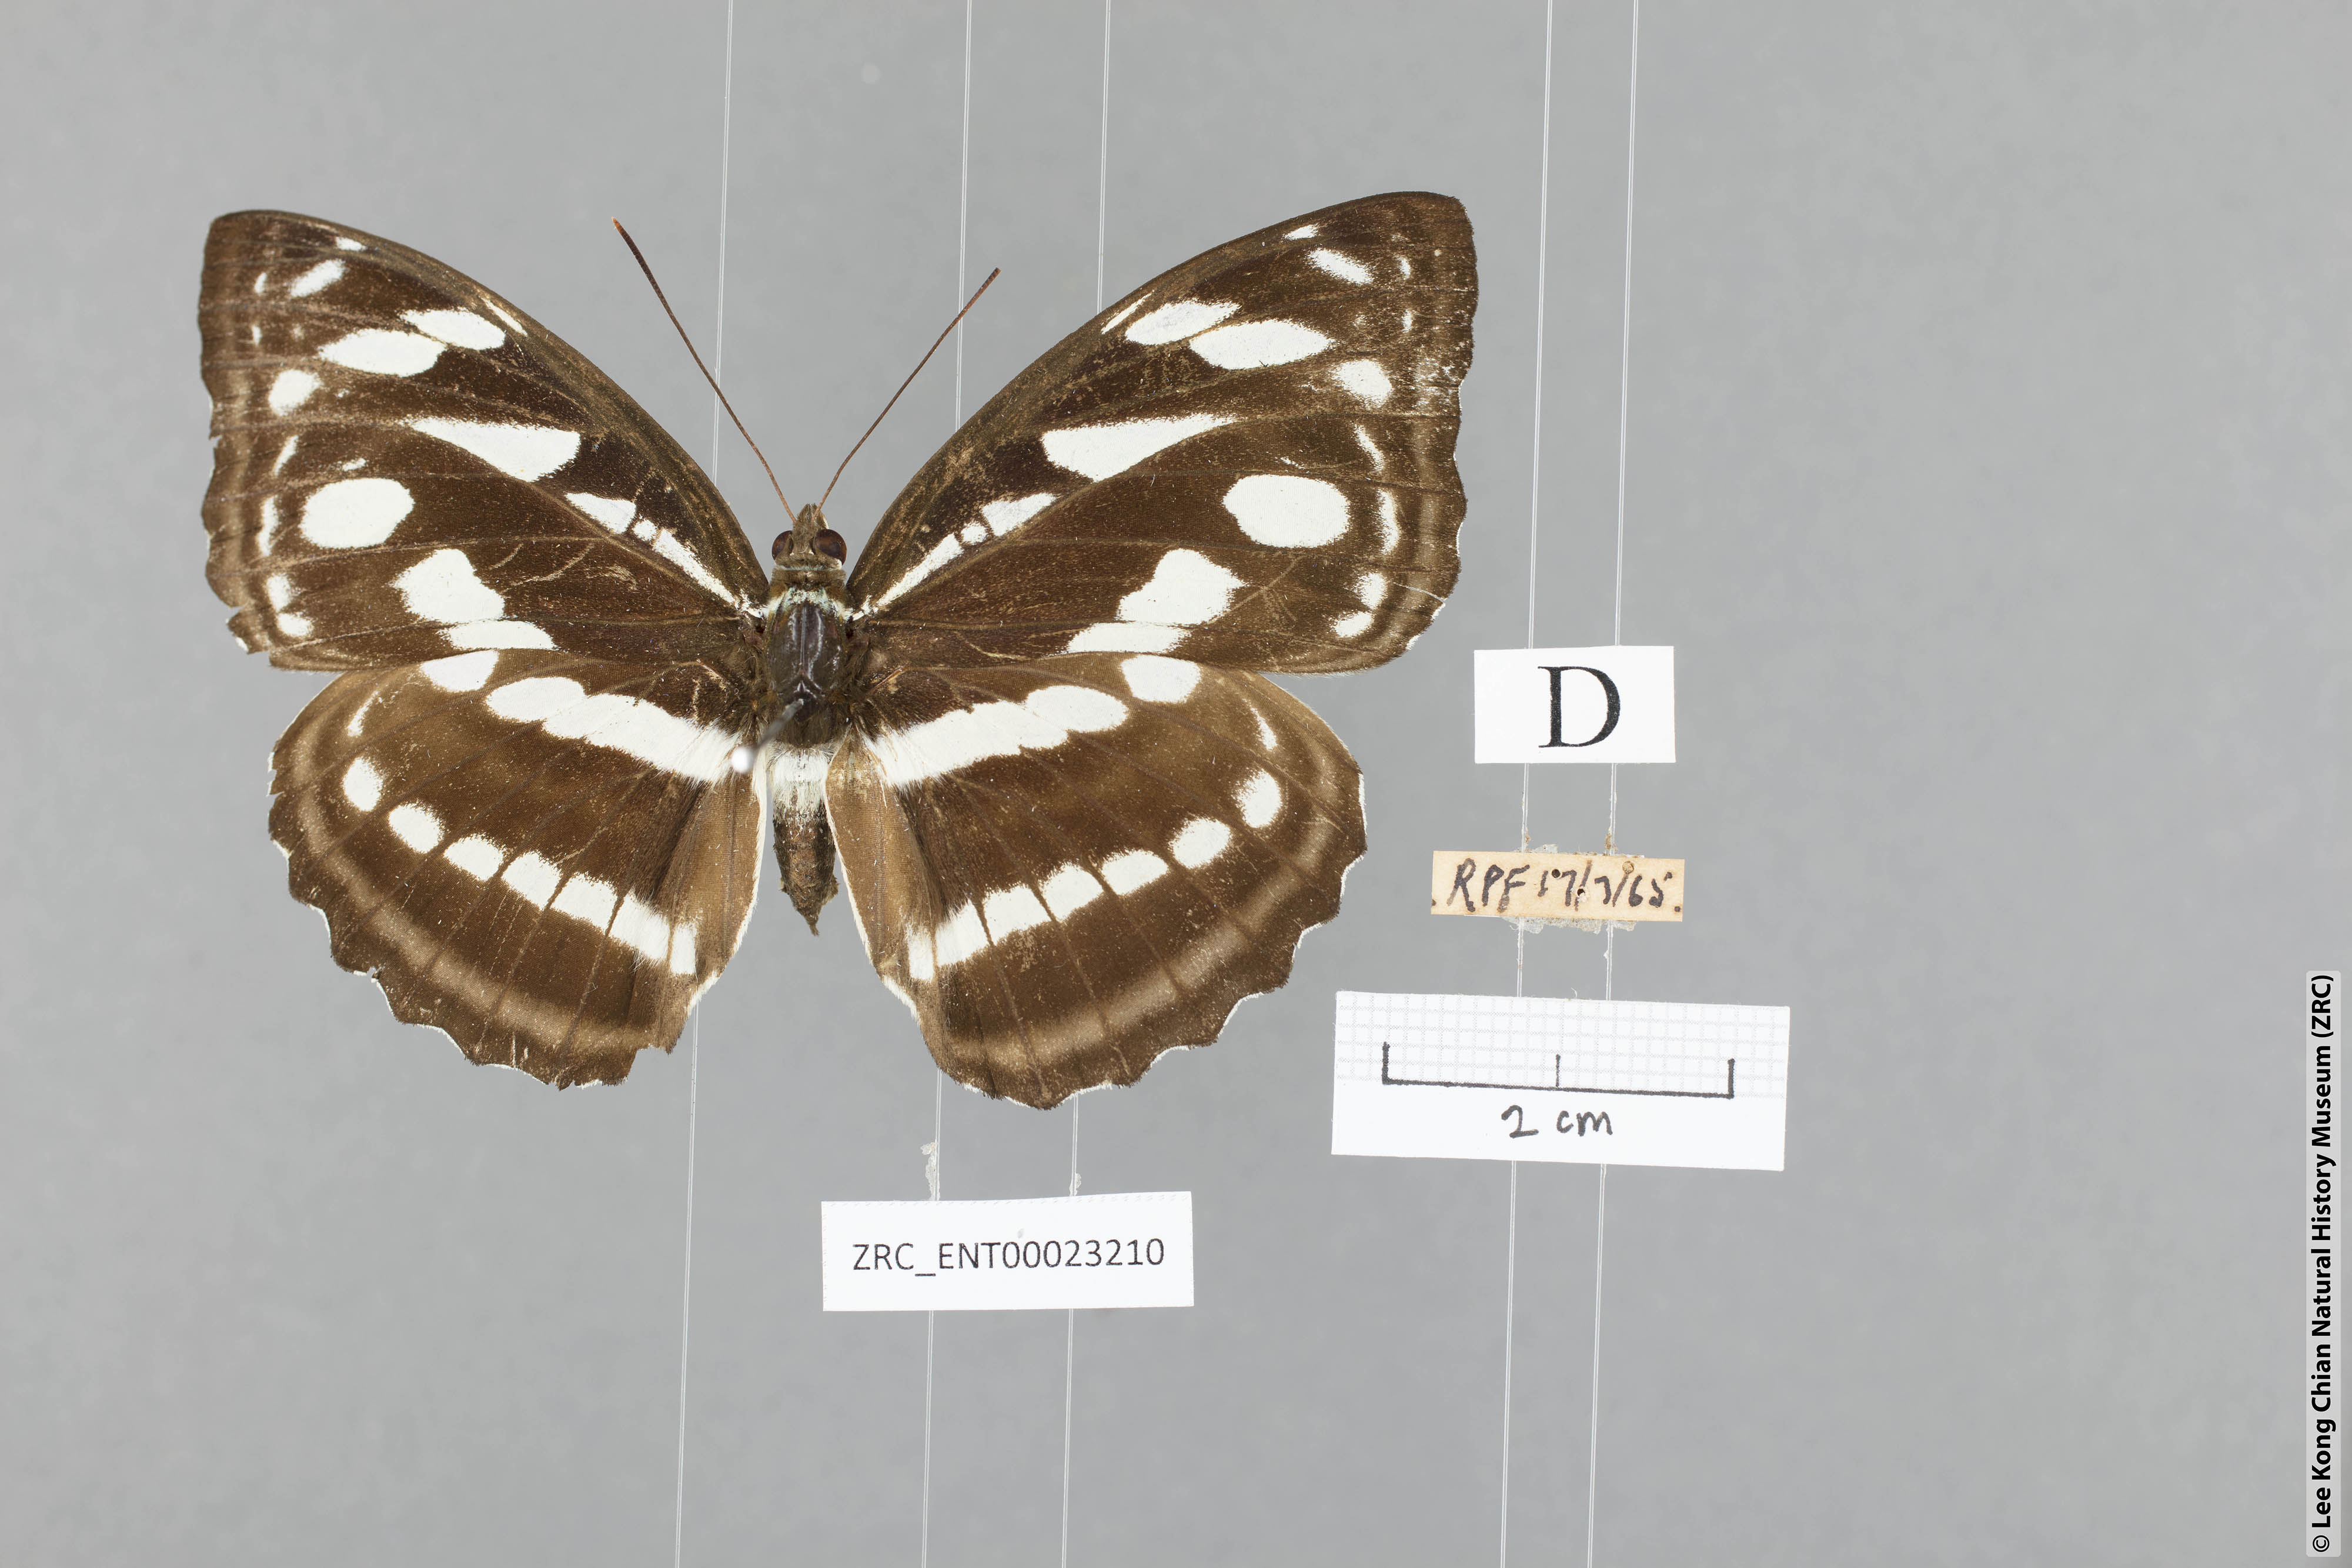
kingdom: Animalia
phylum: Arthropoda
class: Insecta
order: Lepidoptera
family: Nymphalidae
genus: Pantoporia
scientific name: Pantoporia larymna
